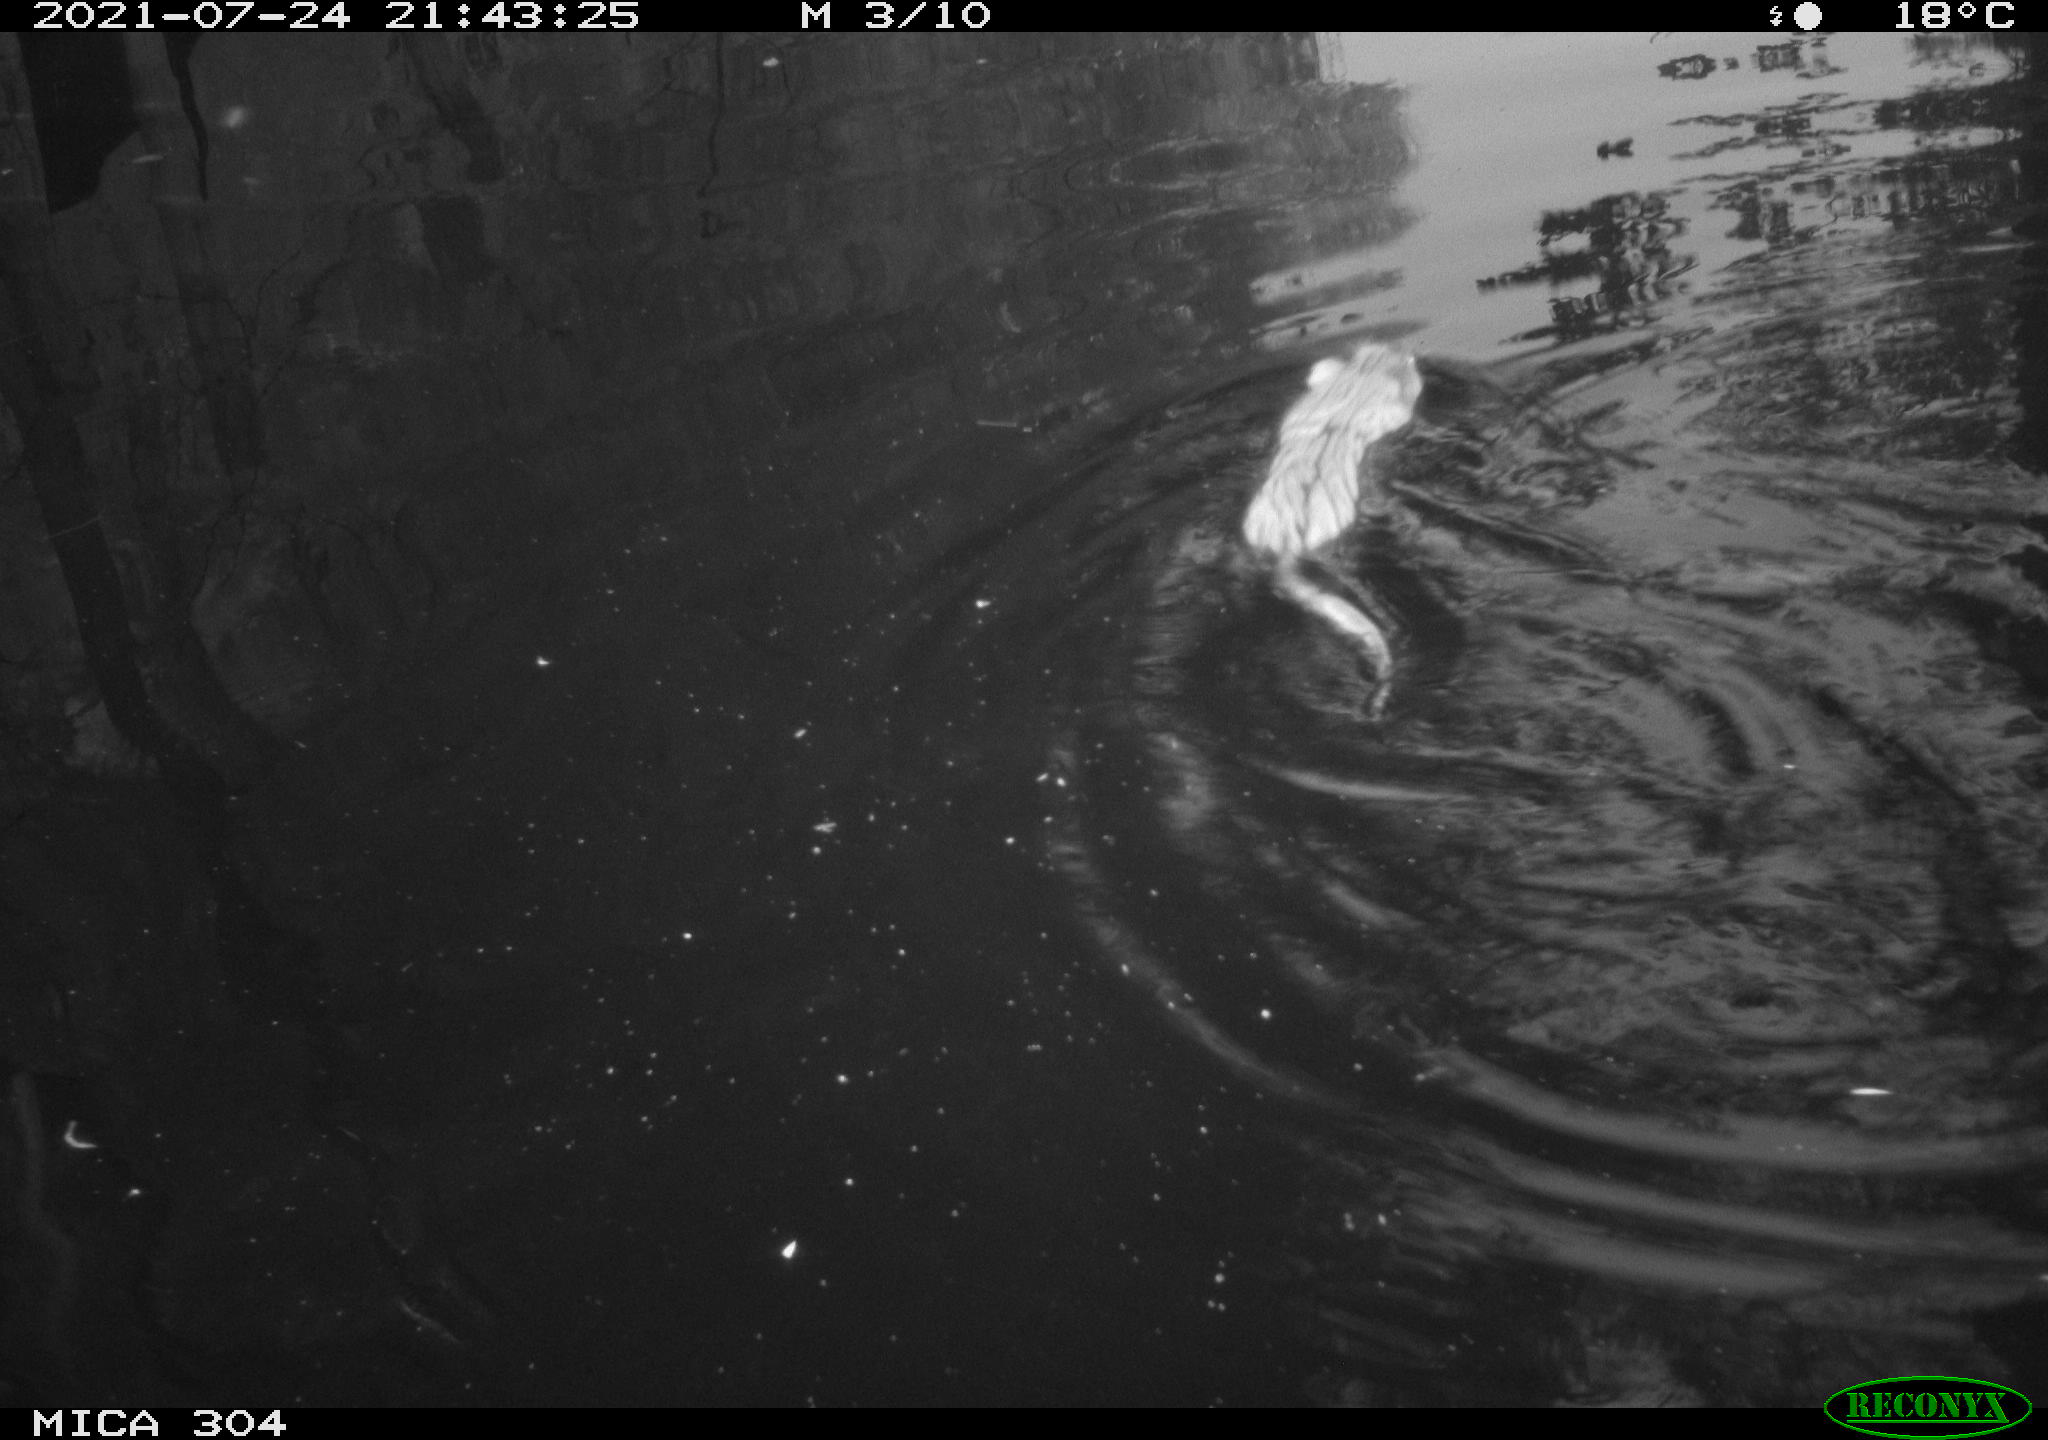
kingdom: Animalia
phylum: Chordata
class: Mammalia
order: Rodentia
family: Cricetidae
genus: Ondatra
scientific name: Ondatra zibethicus
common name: Muskrat
